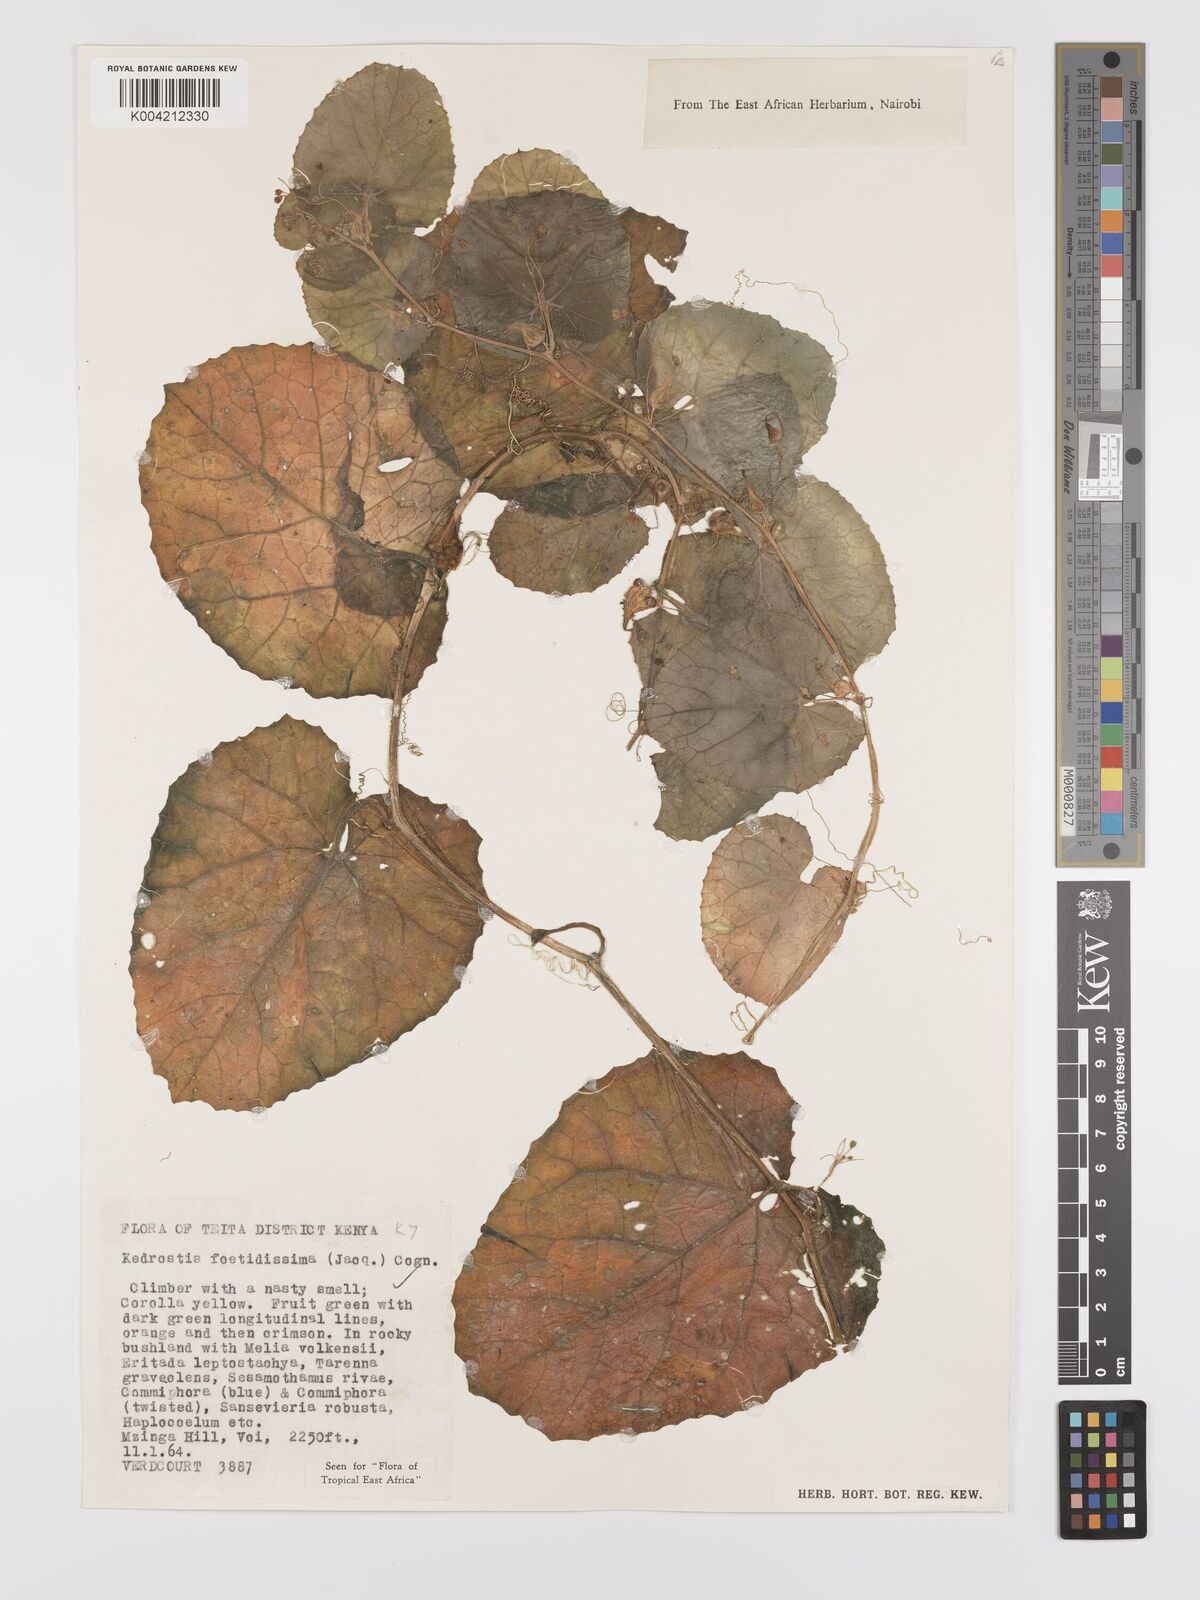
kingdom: Plantae
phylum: Tracheophyta
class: Magnoliopsida
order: Cucurbitales
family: Cucurbitaceae
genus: Kedrostis
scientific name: Kedrostis foetidissima
